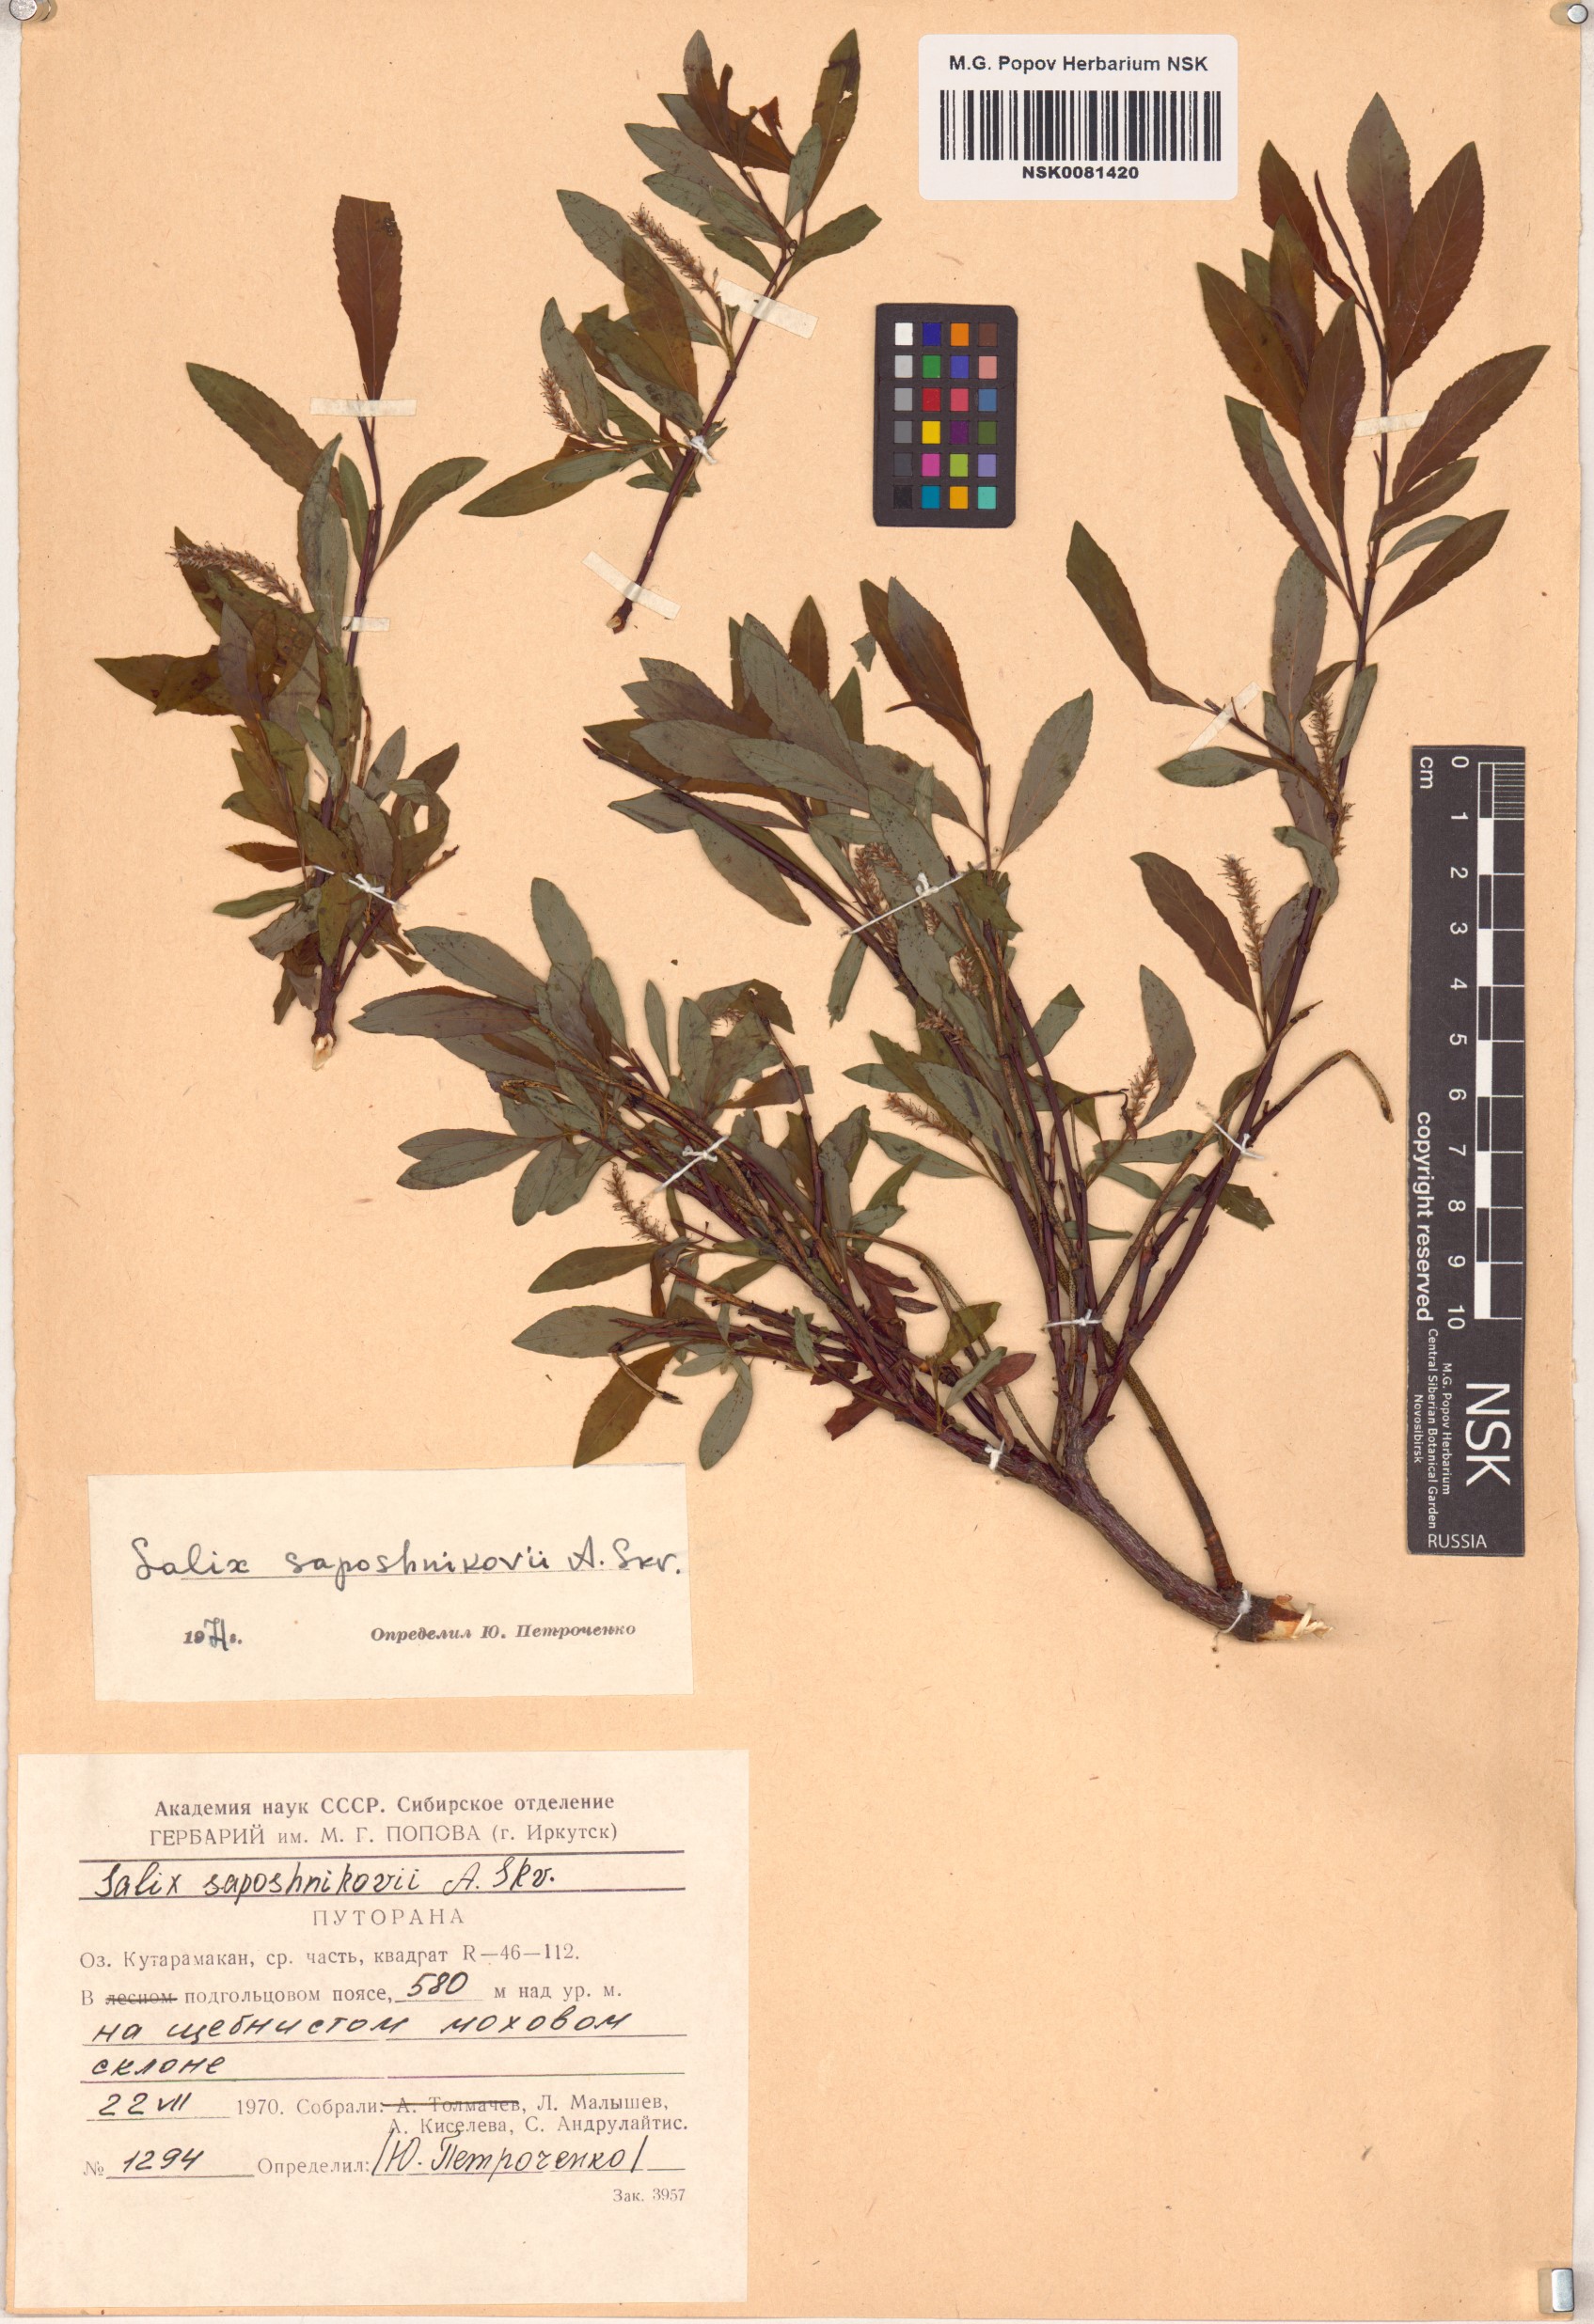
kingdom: Plantae
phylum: Tracheophyta
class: Magnoliopsida
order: Malpighiales
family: Salicaceae
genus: Salix
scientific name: Salix saposhnikovii
